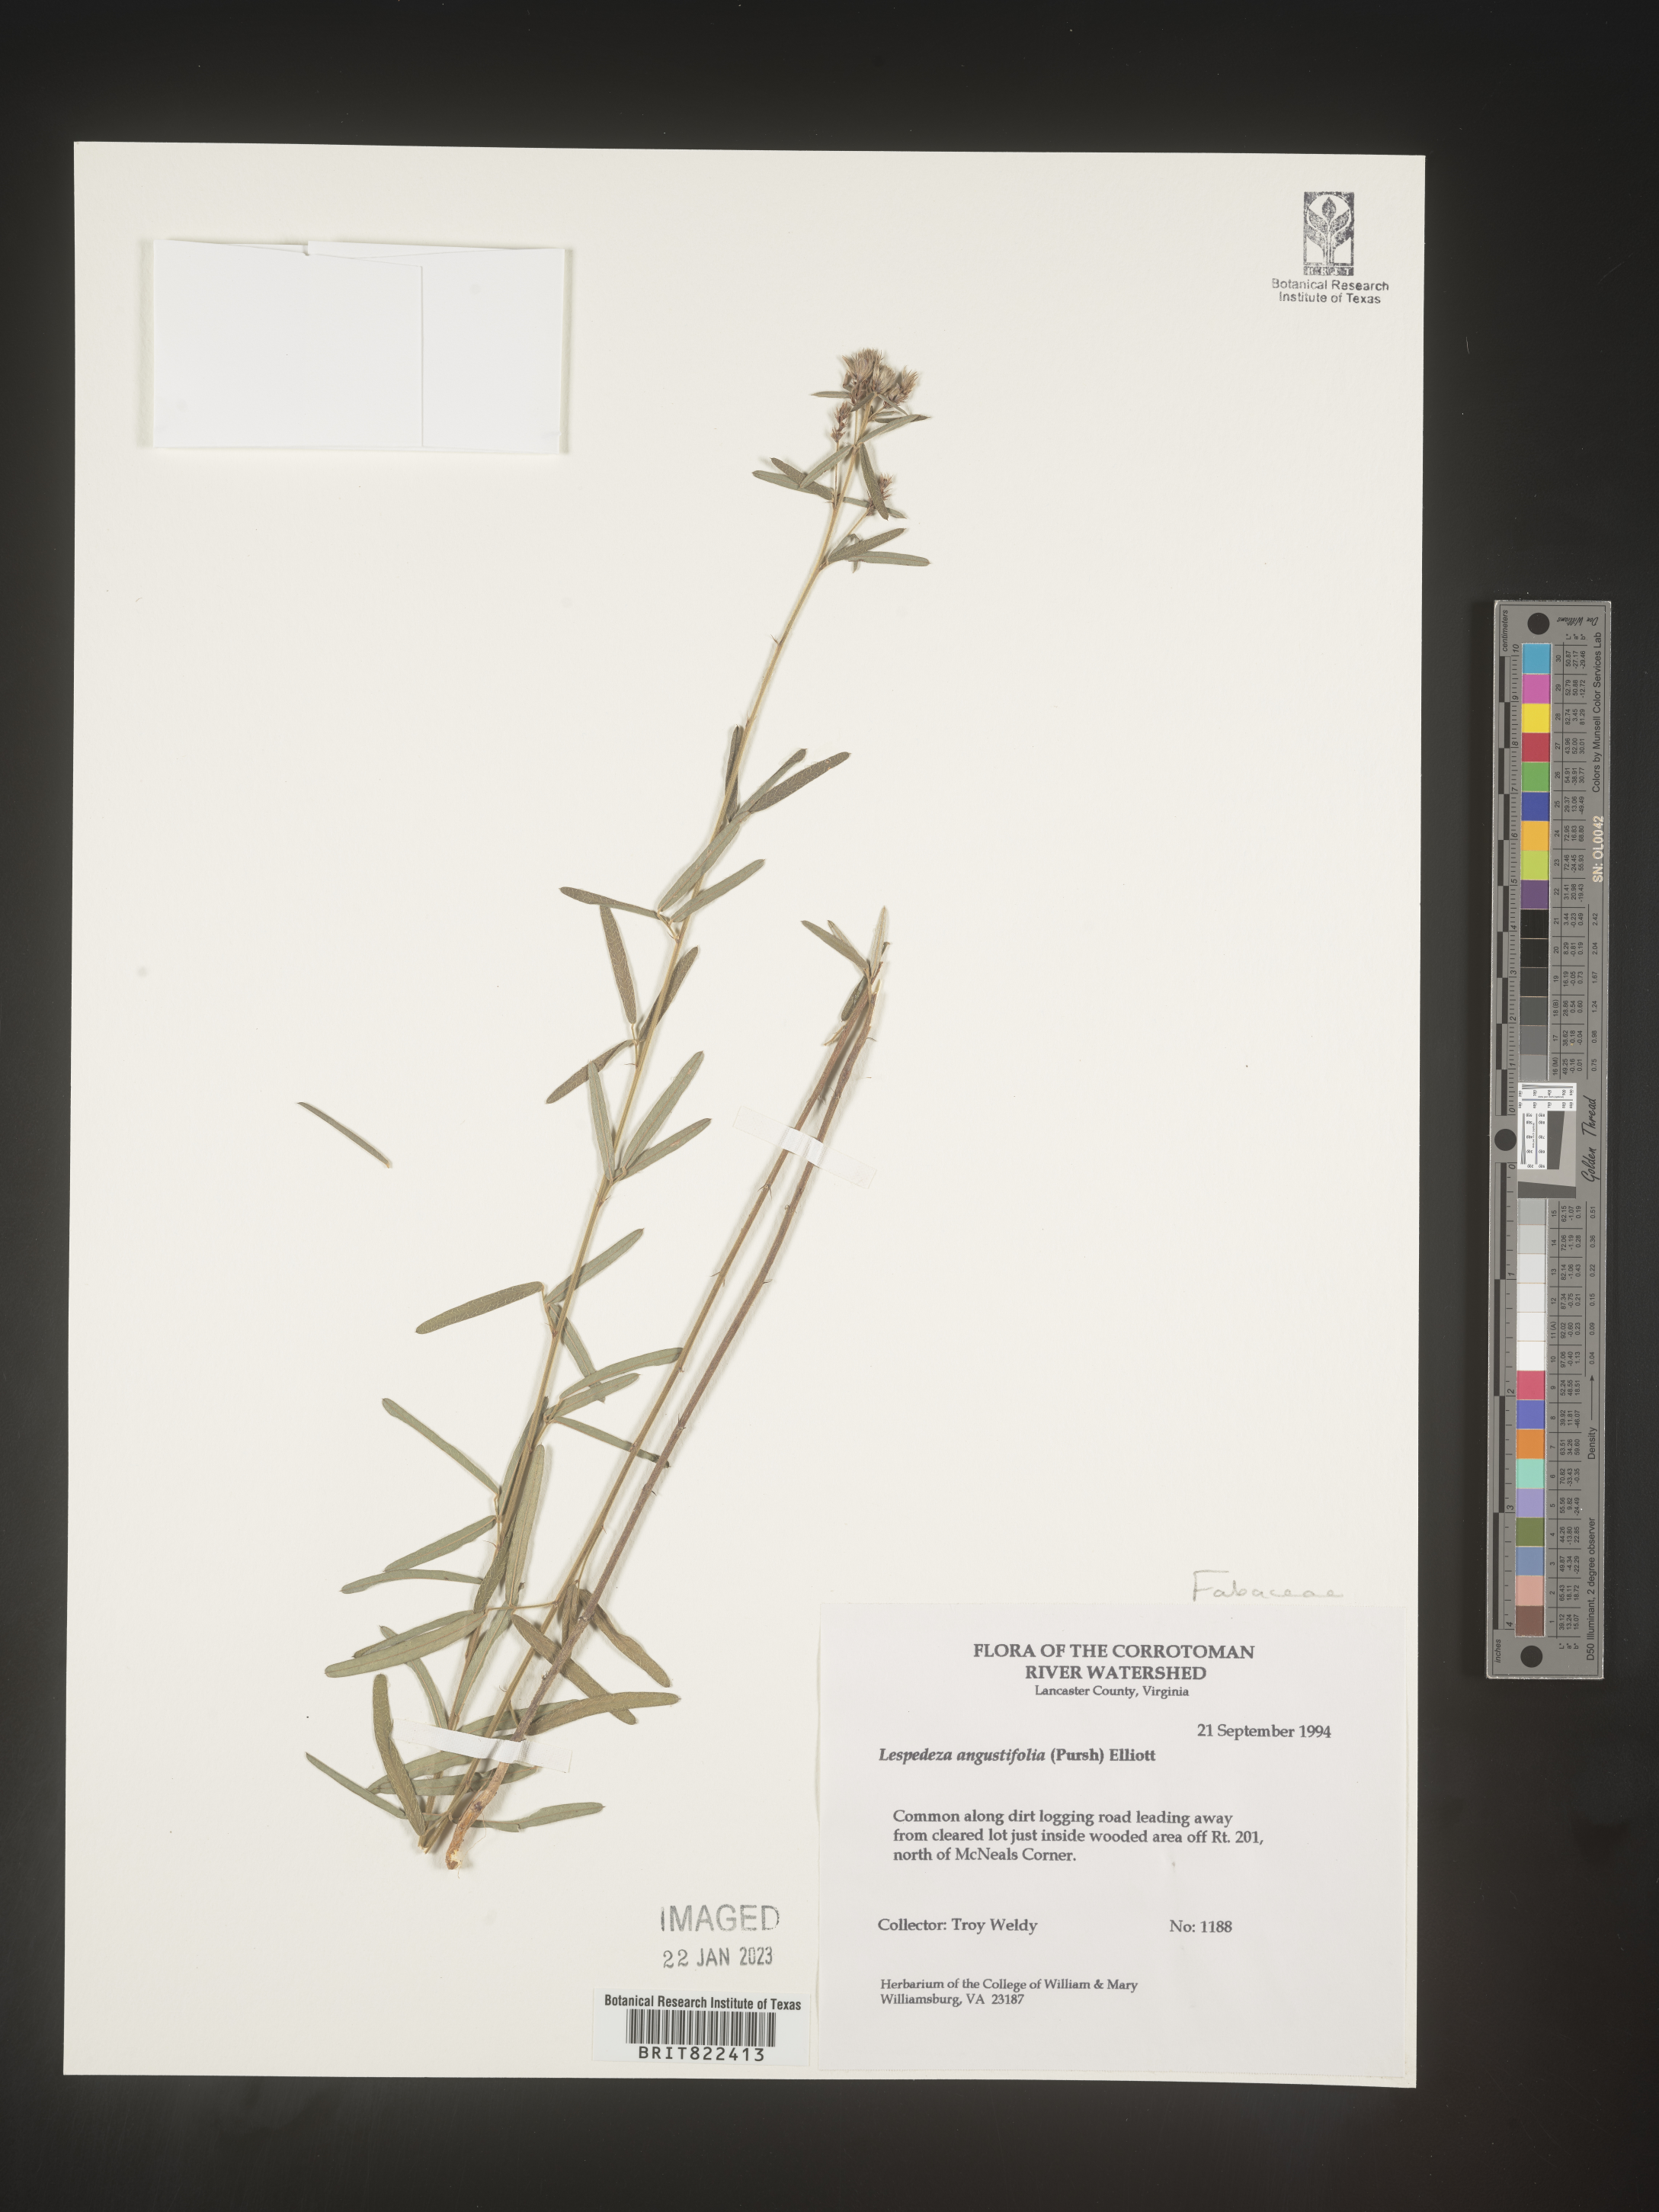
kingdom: Plantae
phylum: Tracheophyta
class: Magnoliopsida
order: Fabales
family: Fabaceae
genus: Lespedeza
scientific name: Lespedeza
